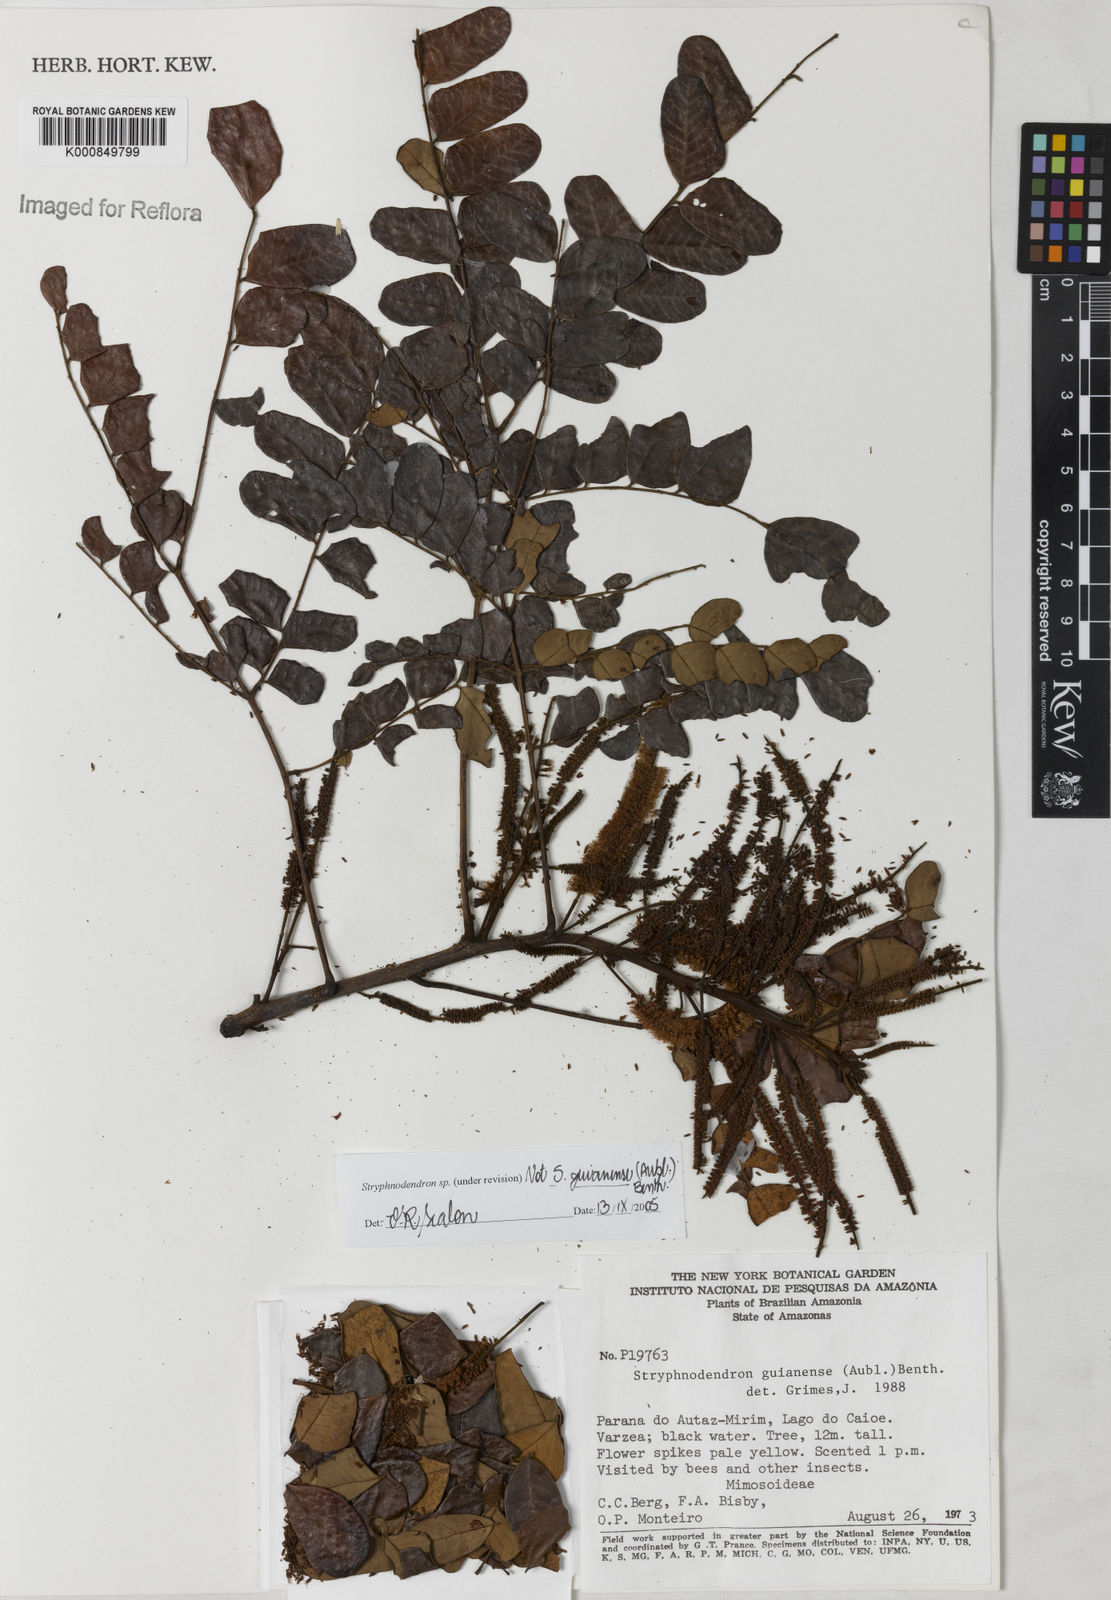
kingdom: Plantae
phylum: Tracheophyta
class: Magnoliopsida
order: Fabales
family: Fabaceae
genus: Stryphnodendron
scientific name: Stryphnodendron
